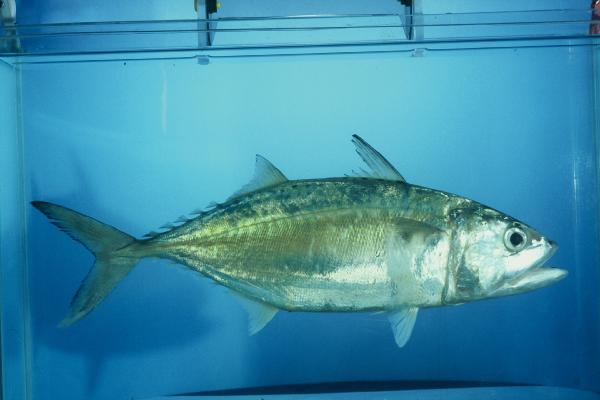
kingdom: Animalia
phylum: Chordata
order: Perciformes
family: Scombridae
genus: Rastrelliger
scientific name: Rastrelliger kanagurta
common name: Indian mackerel
